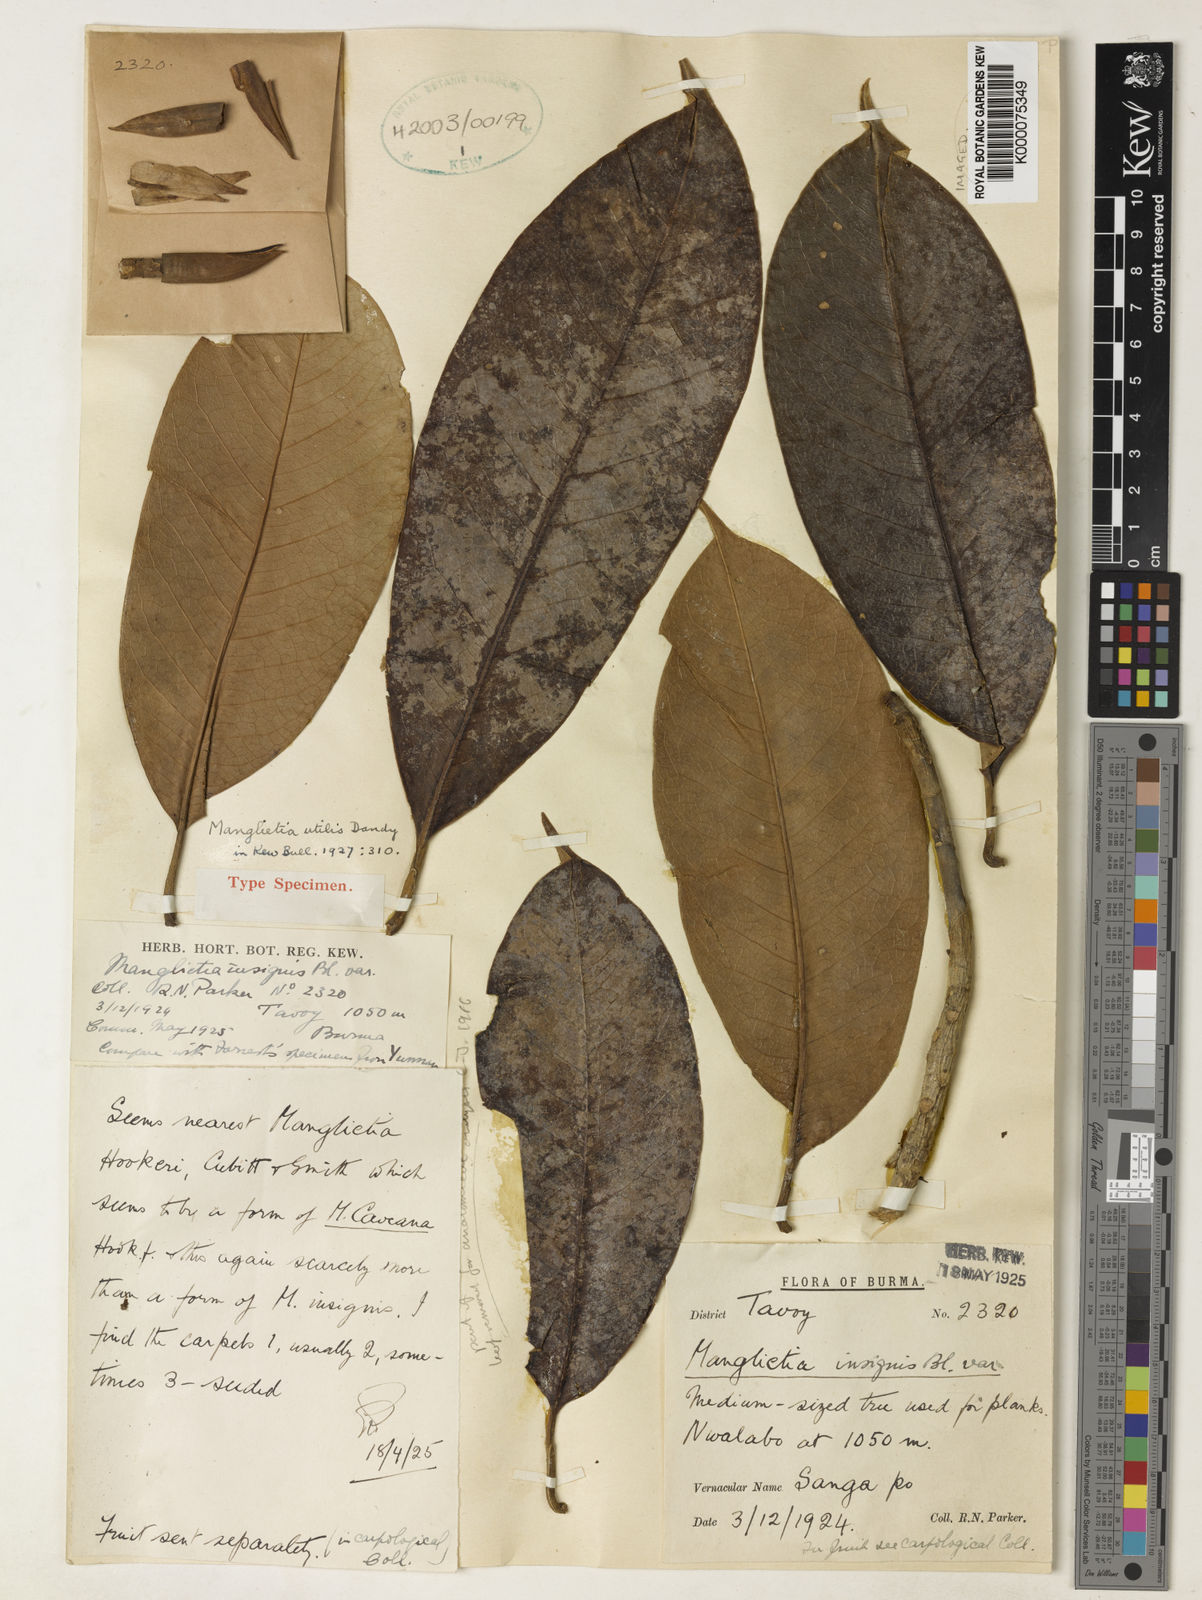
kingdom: Plantae
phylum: Tracheophyta
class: Magnoliopsida
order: Magnoliales
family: Magnoliaceae
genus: Magnolia
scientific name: Magnolia utilis
